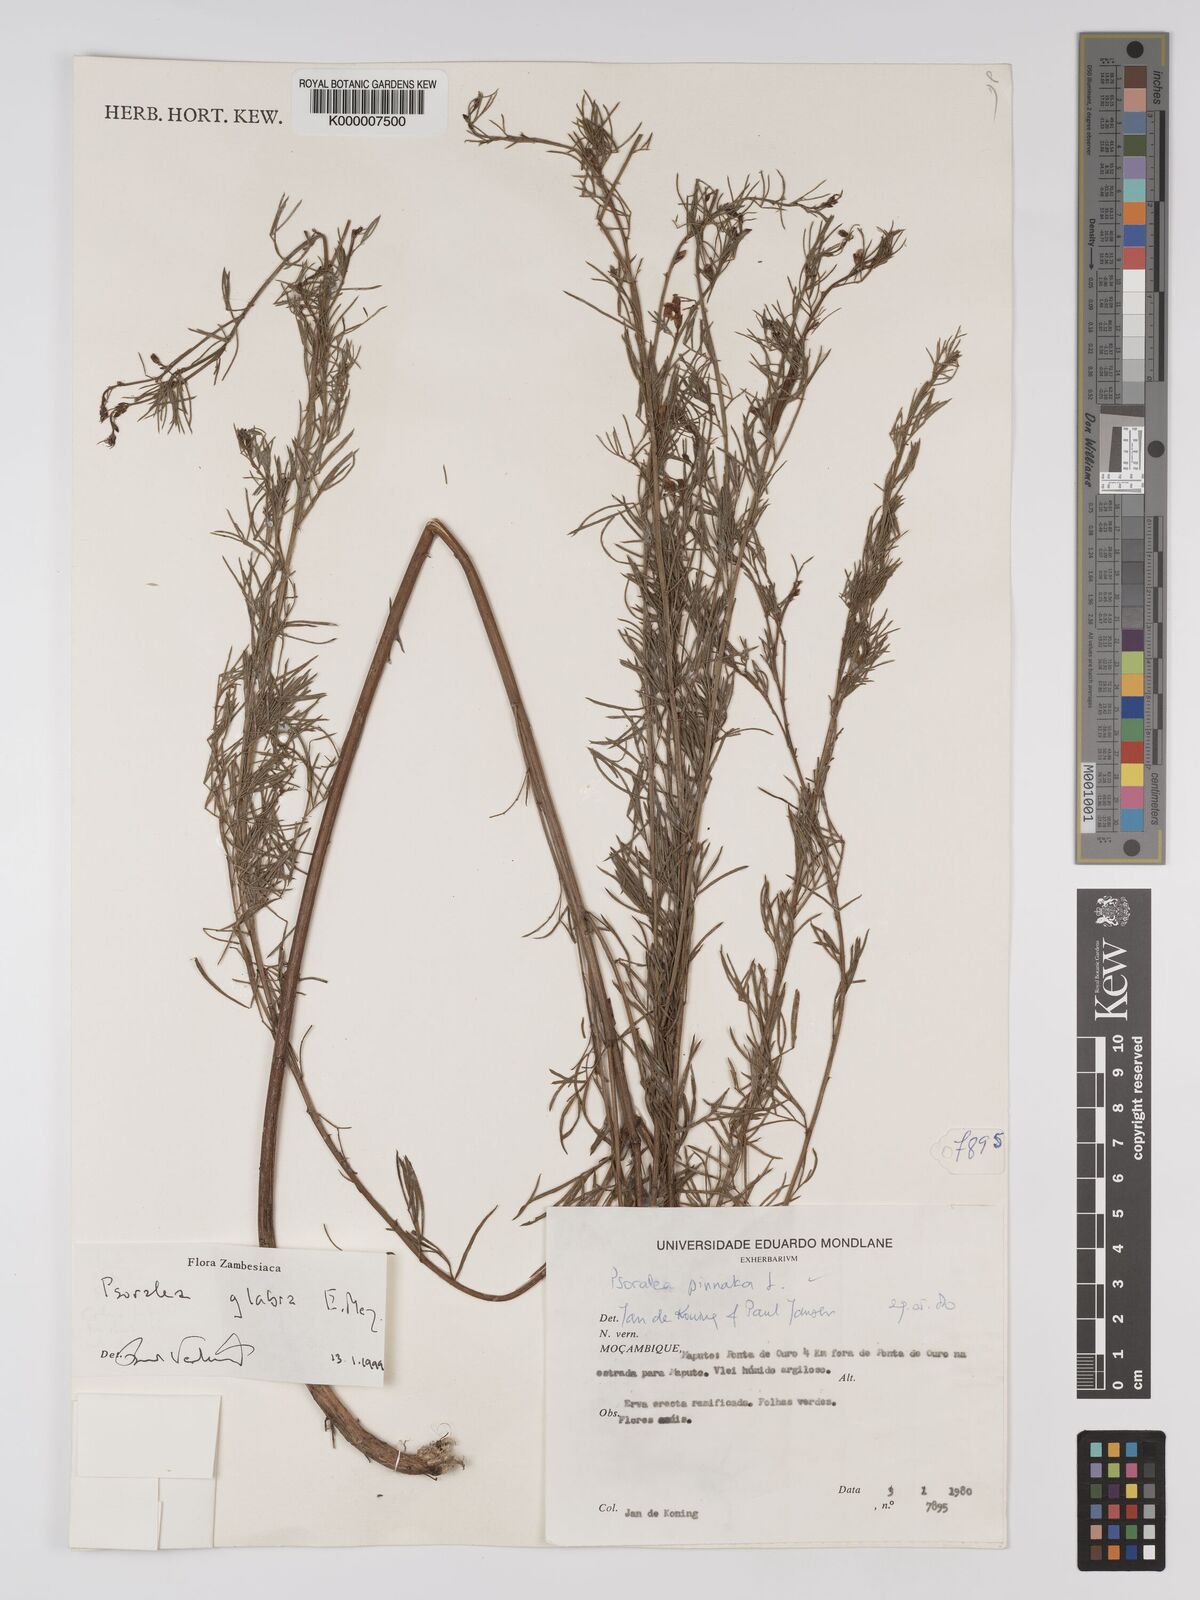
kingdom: Plantae
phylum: Tracheophyta
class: Magnoliopsida
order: Fabales
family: Fabaceae
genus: Psoralea
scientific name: Psoralea glabra
